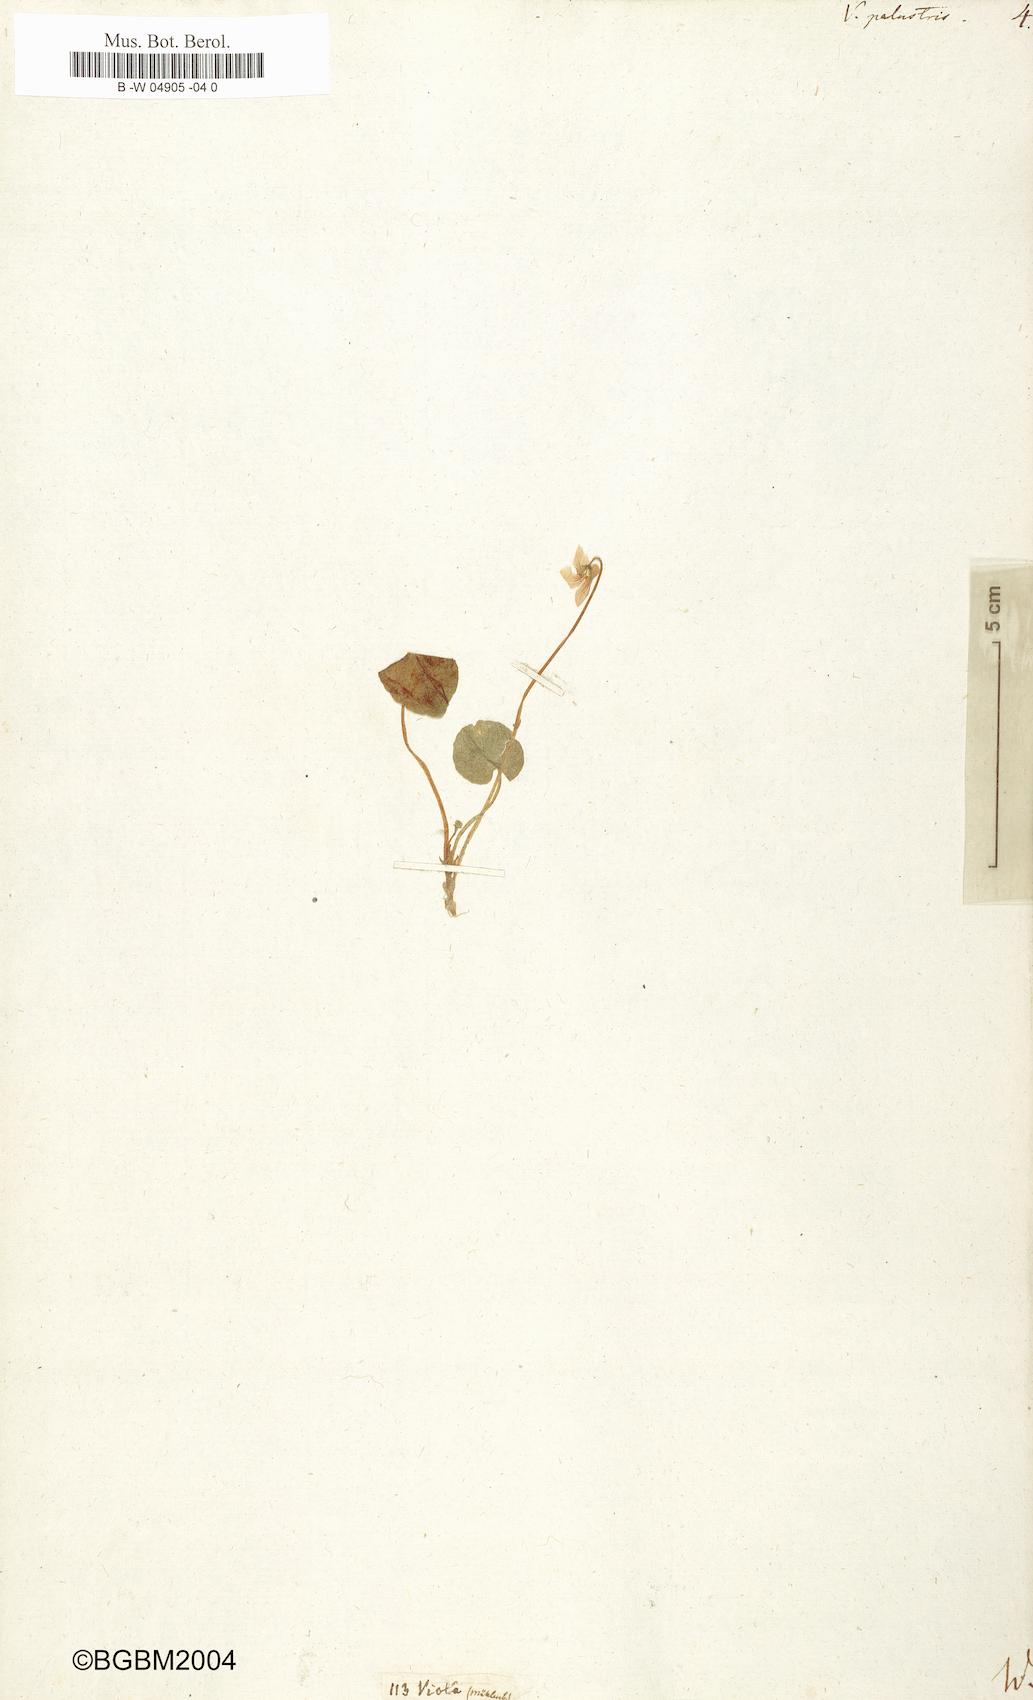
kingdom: Plantae
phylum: Tracheophyta
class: Magnoliopsida
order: Malpighiales
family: Violaceae
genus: Viola
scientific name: Viola palustris
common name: Marsh violet
